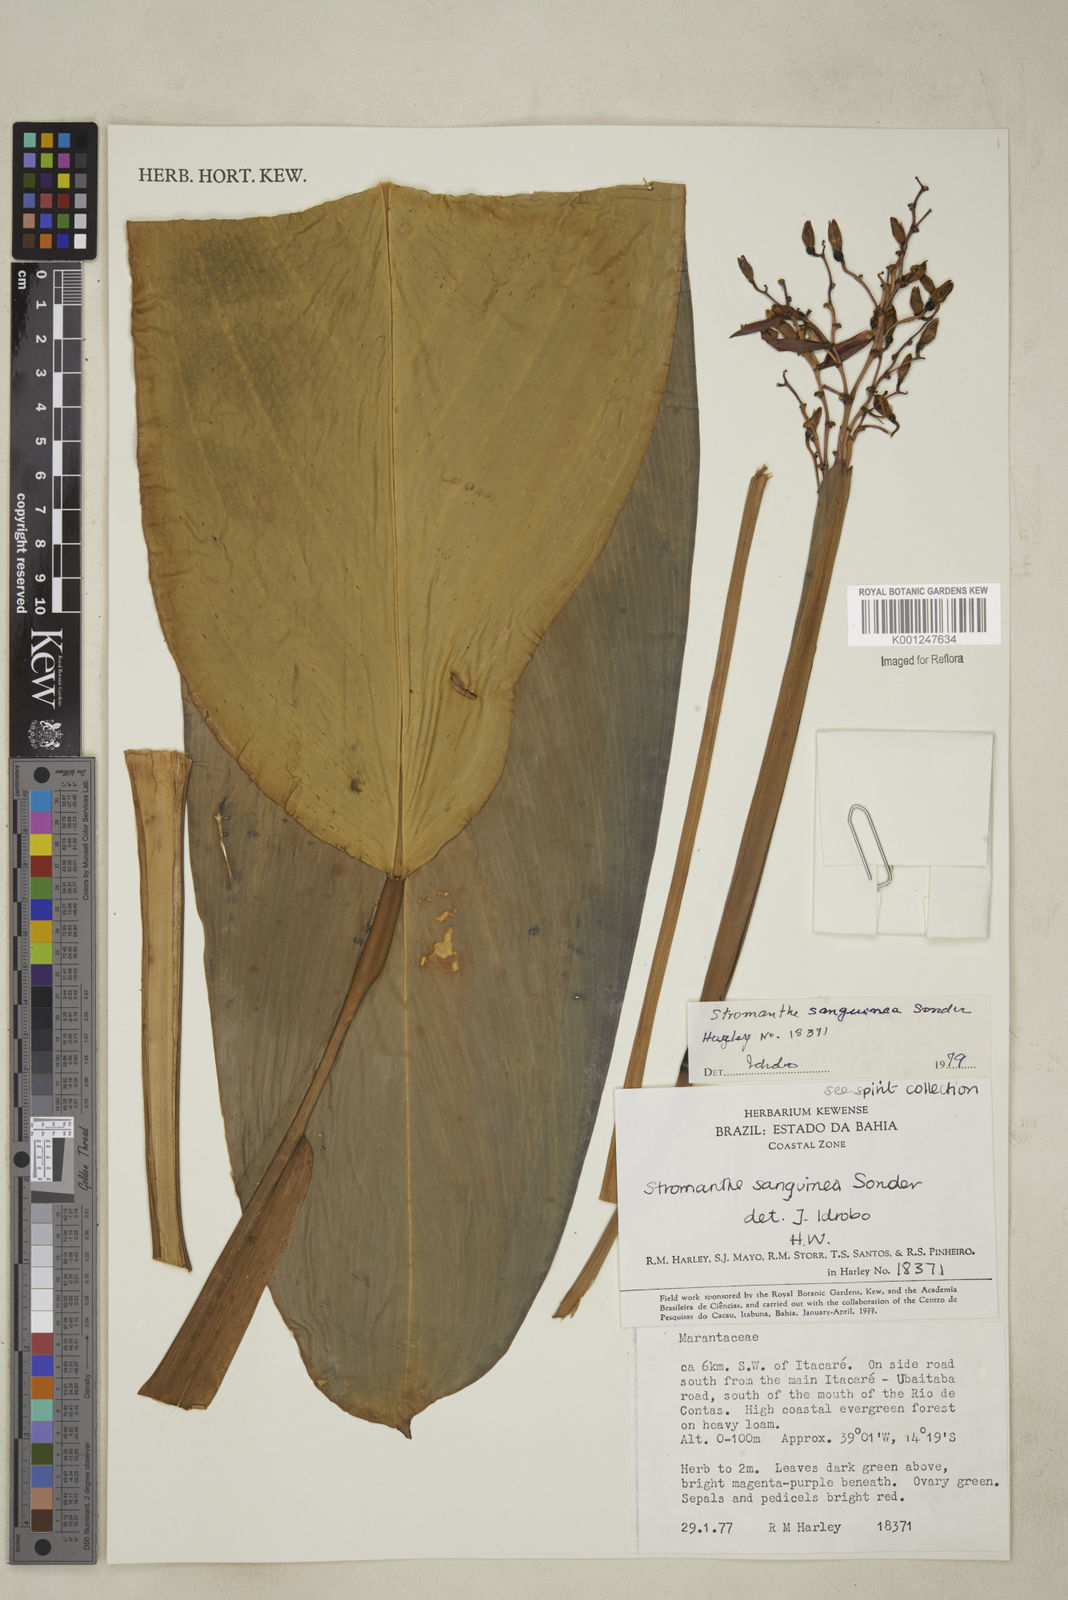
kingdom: Plantae
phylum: Tracheophyta
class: Liliopsida
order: Zingiberales
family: Marantaceae
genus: Stromanthe
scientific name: Stromanthe thalia
